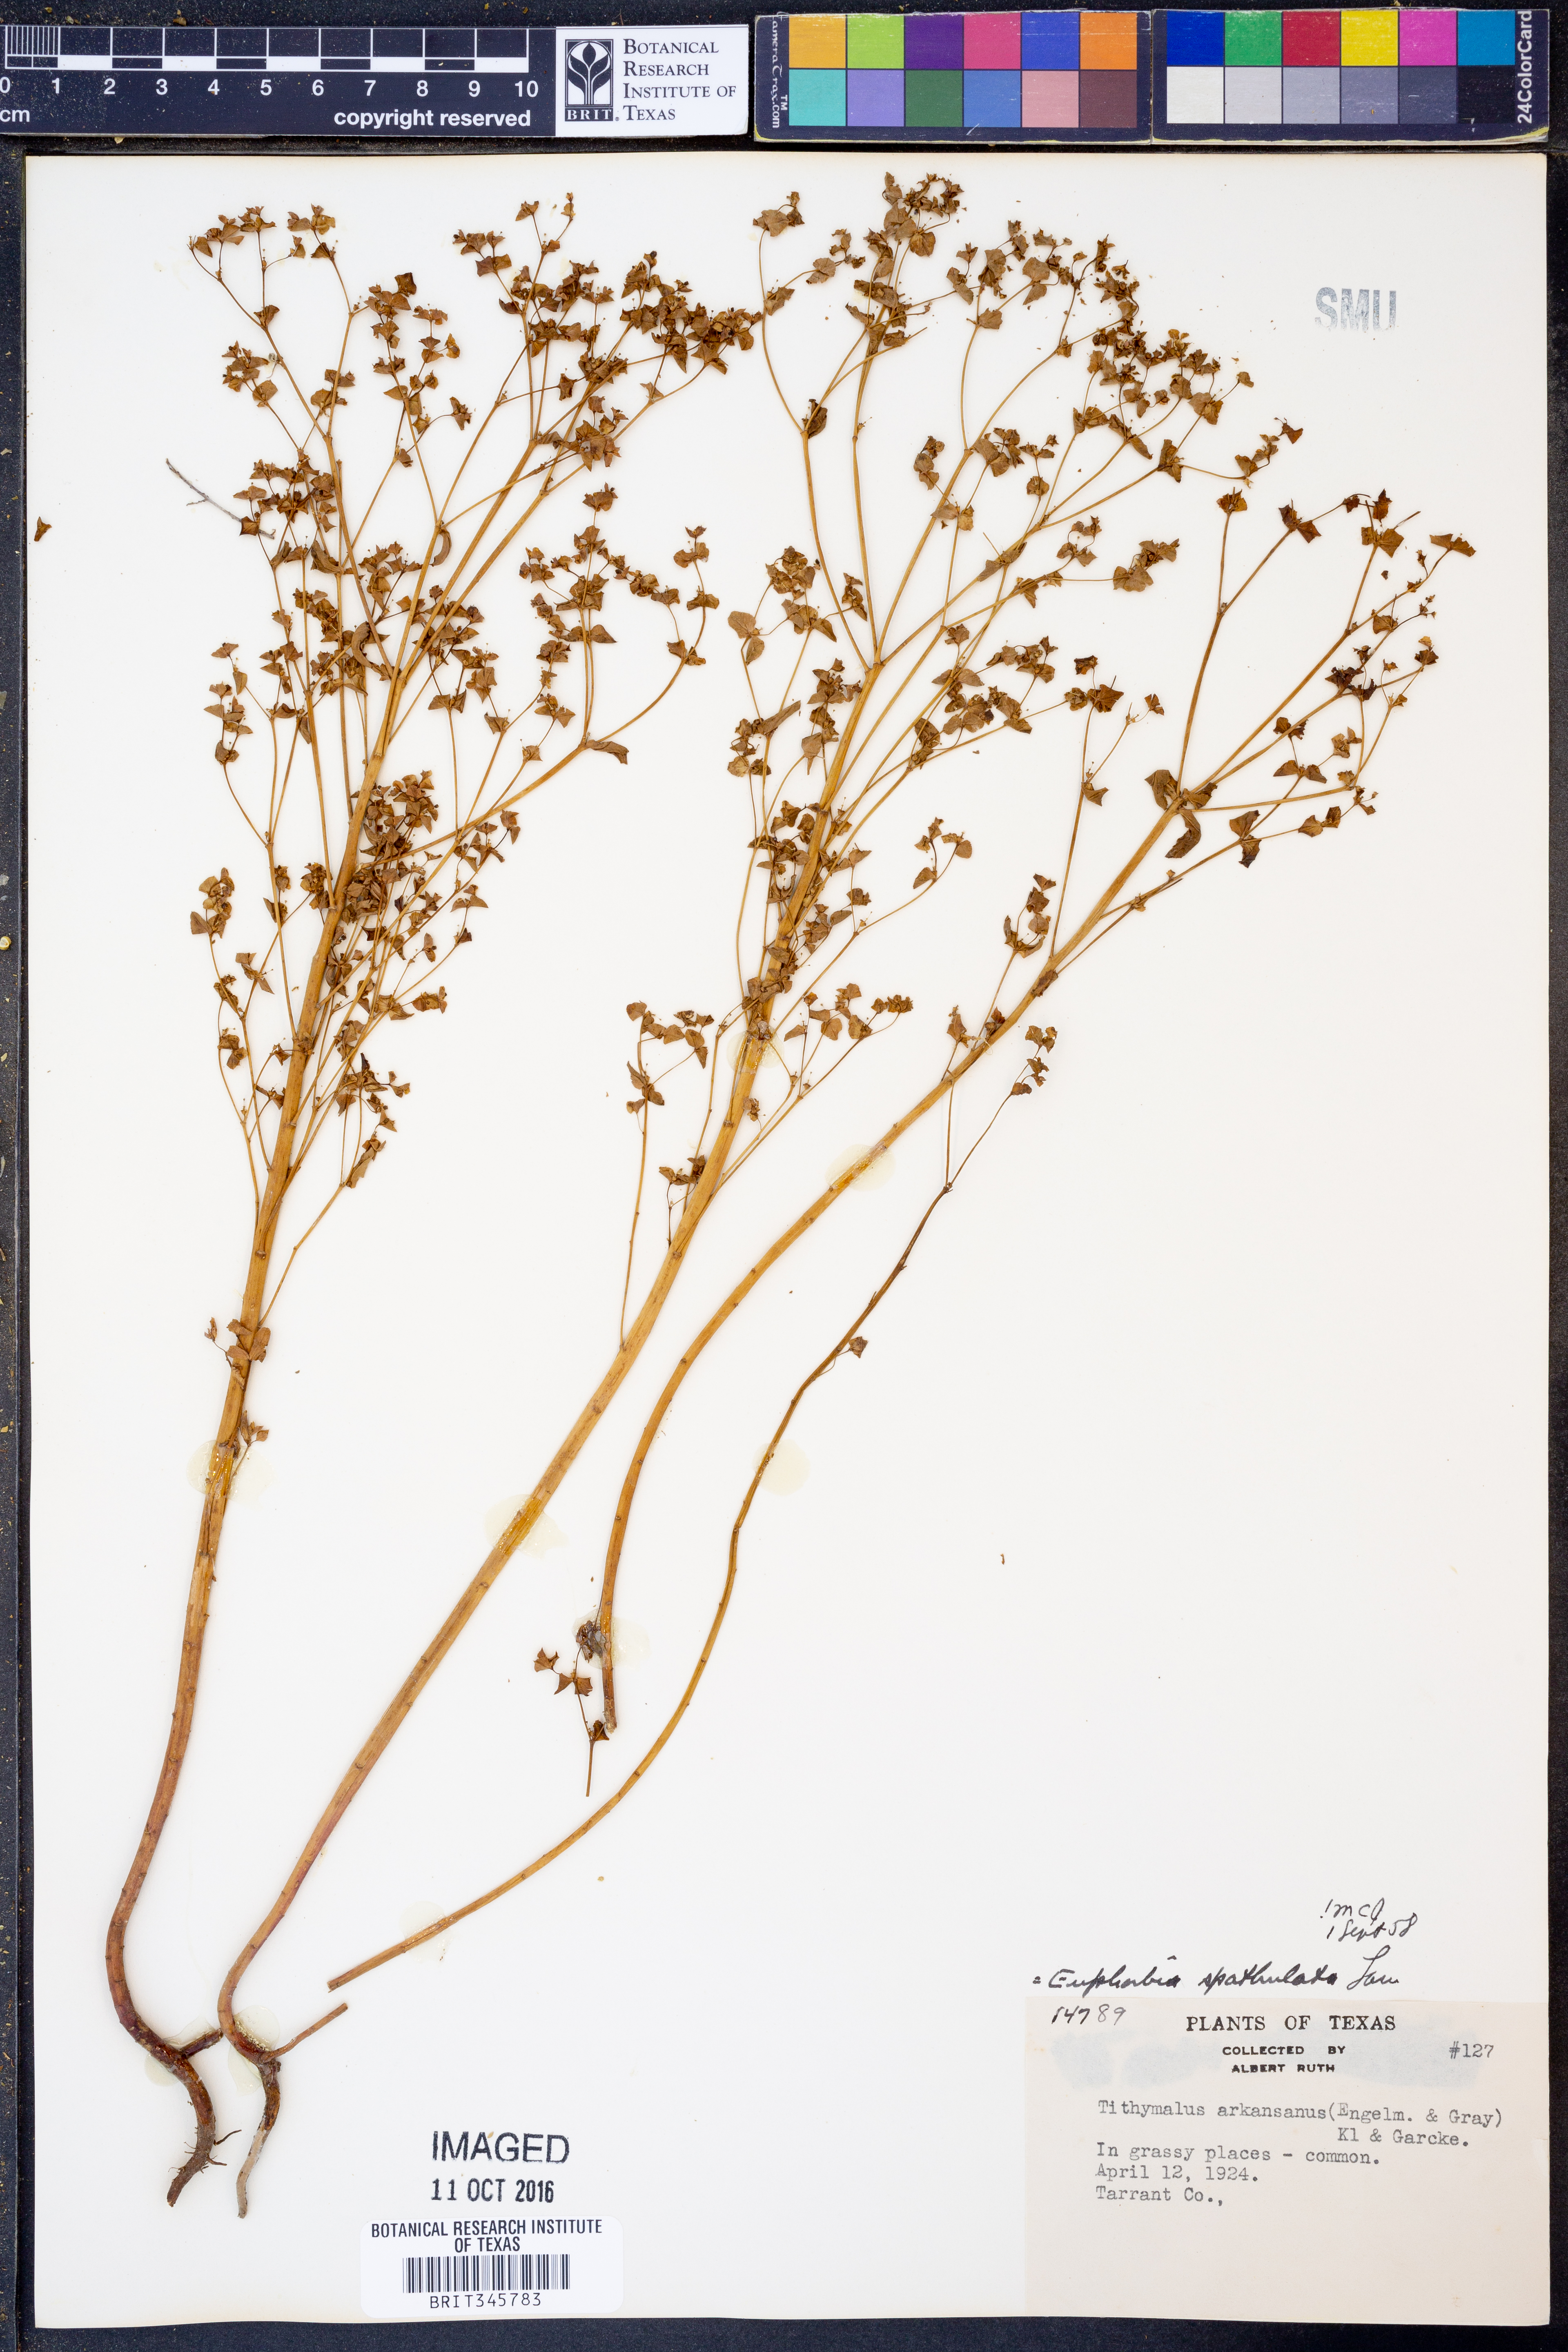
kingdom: Plantae
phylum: Tracheophyta
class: Magnoliopsida
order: Malpighiales
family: Euphorbiaceae
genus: Euphorbia
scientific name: Euphorbia spathulata
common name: Blunt spurge
